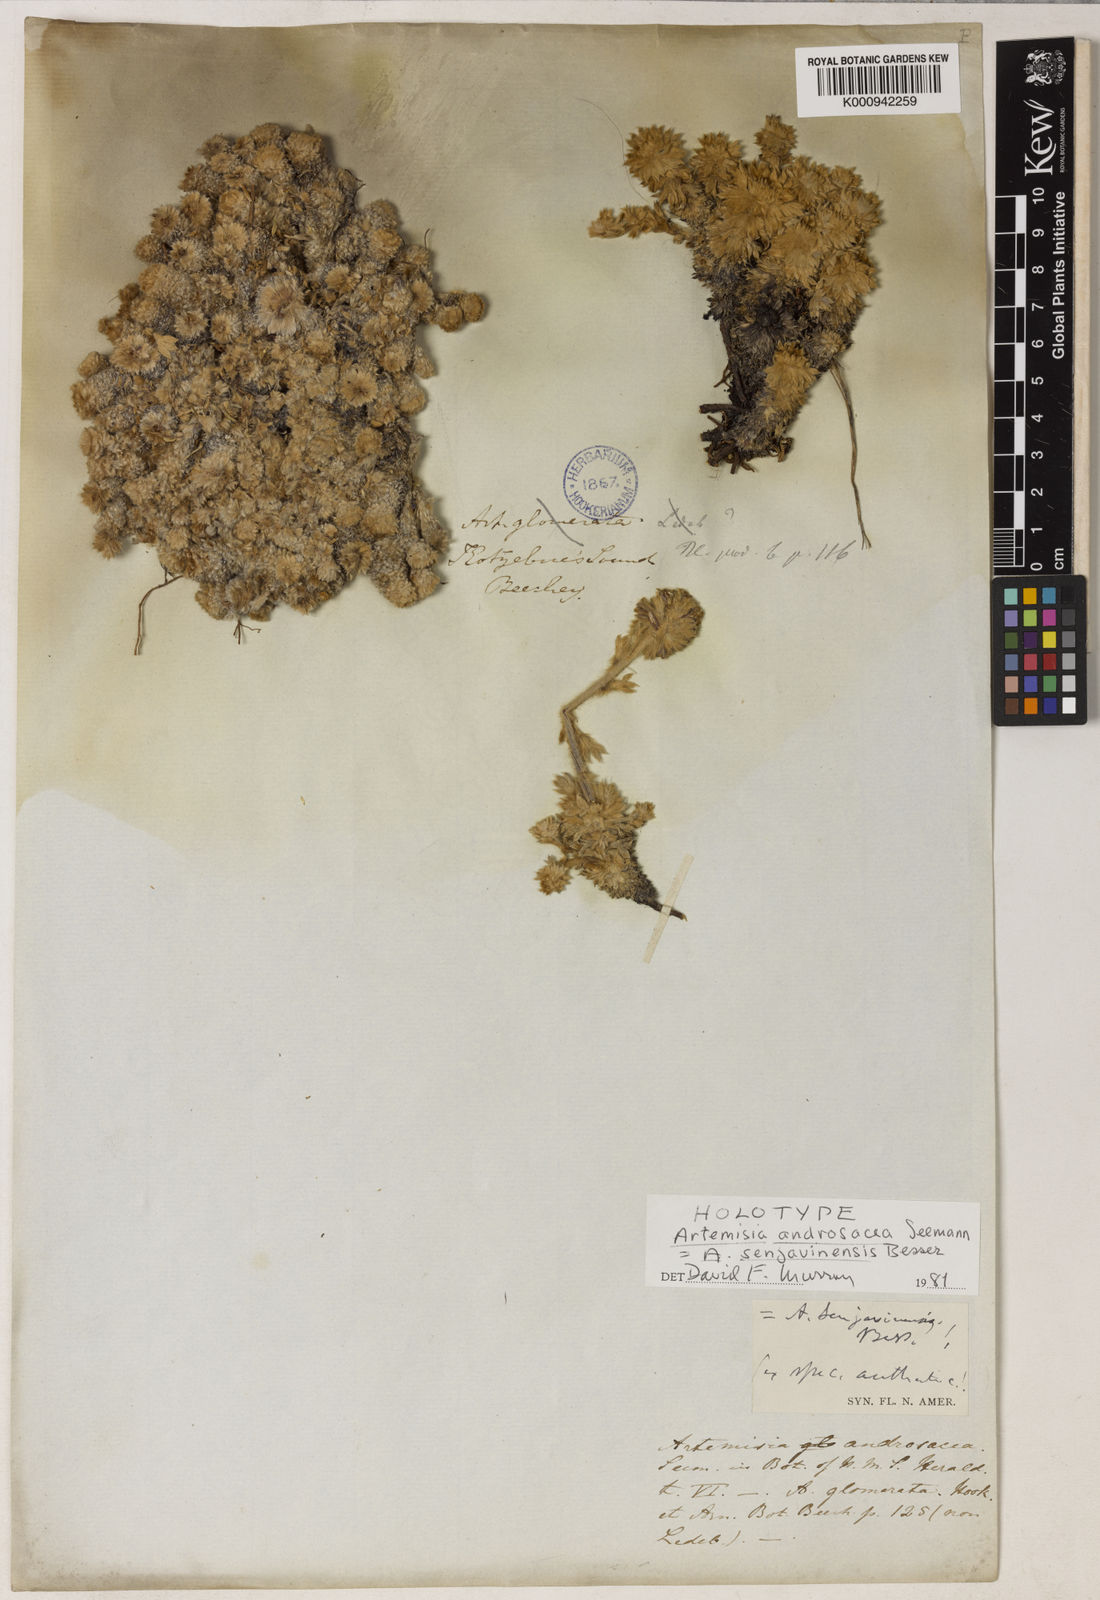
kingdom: Plantae
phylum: Tracheophyta
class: Magnoliopsida
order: Asterales
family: Asteraceae
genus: Artemisia
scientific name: Artemisia senjavinensis
